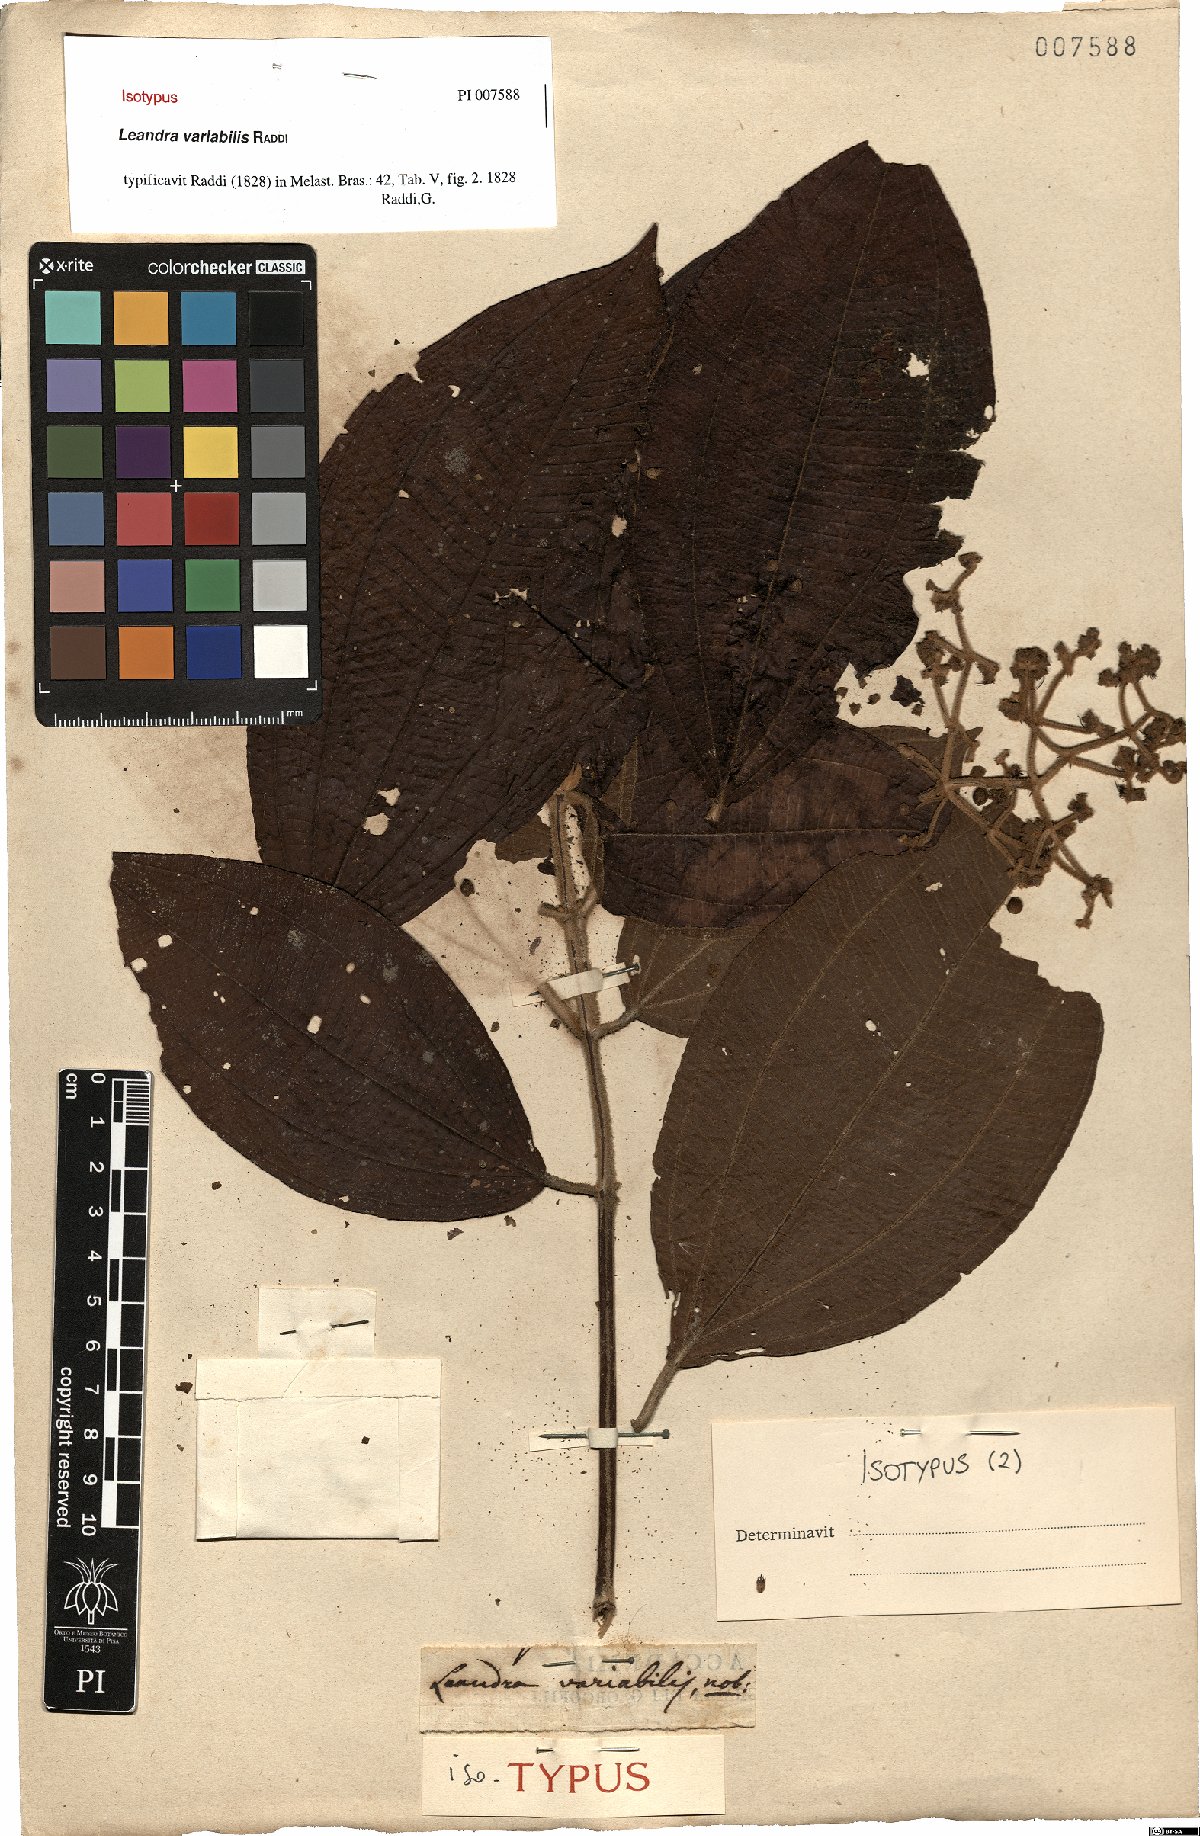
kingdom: Plantae
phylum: Tracheophyta
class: Magnoliopsida
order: Myrtales
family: Melastomataceae
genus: Miconia
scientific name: Miconia dasytricha
